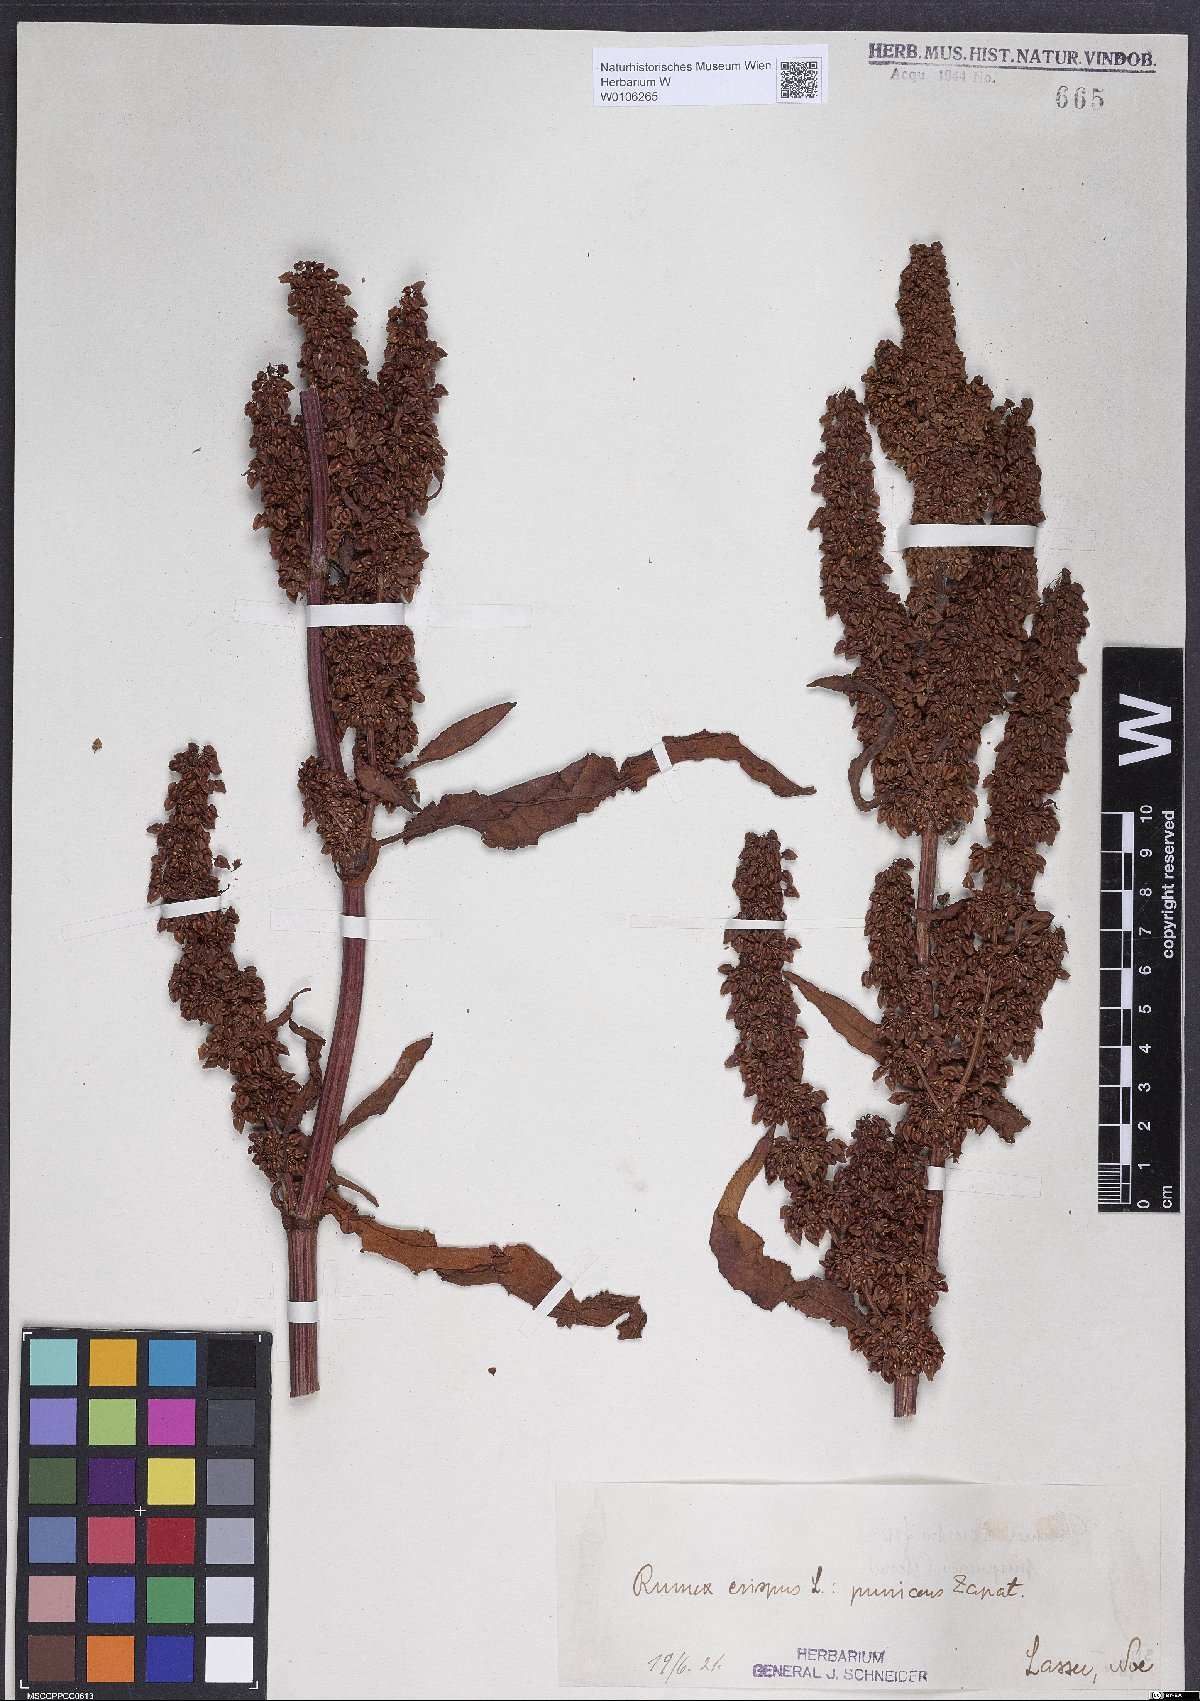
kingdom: Plantae
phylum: Tracheophyta
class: Magnoliopsida
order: Caryophyllales
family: Polygonaceae
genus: Rumex
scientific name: Rumex crispus
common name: Curled dock
